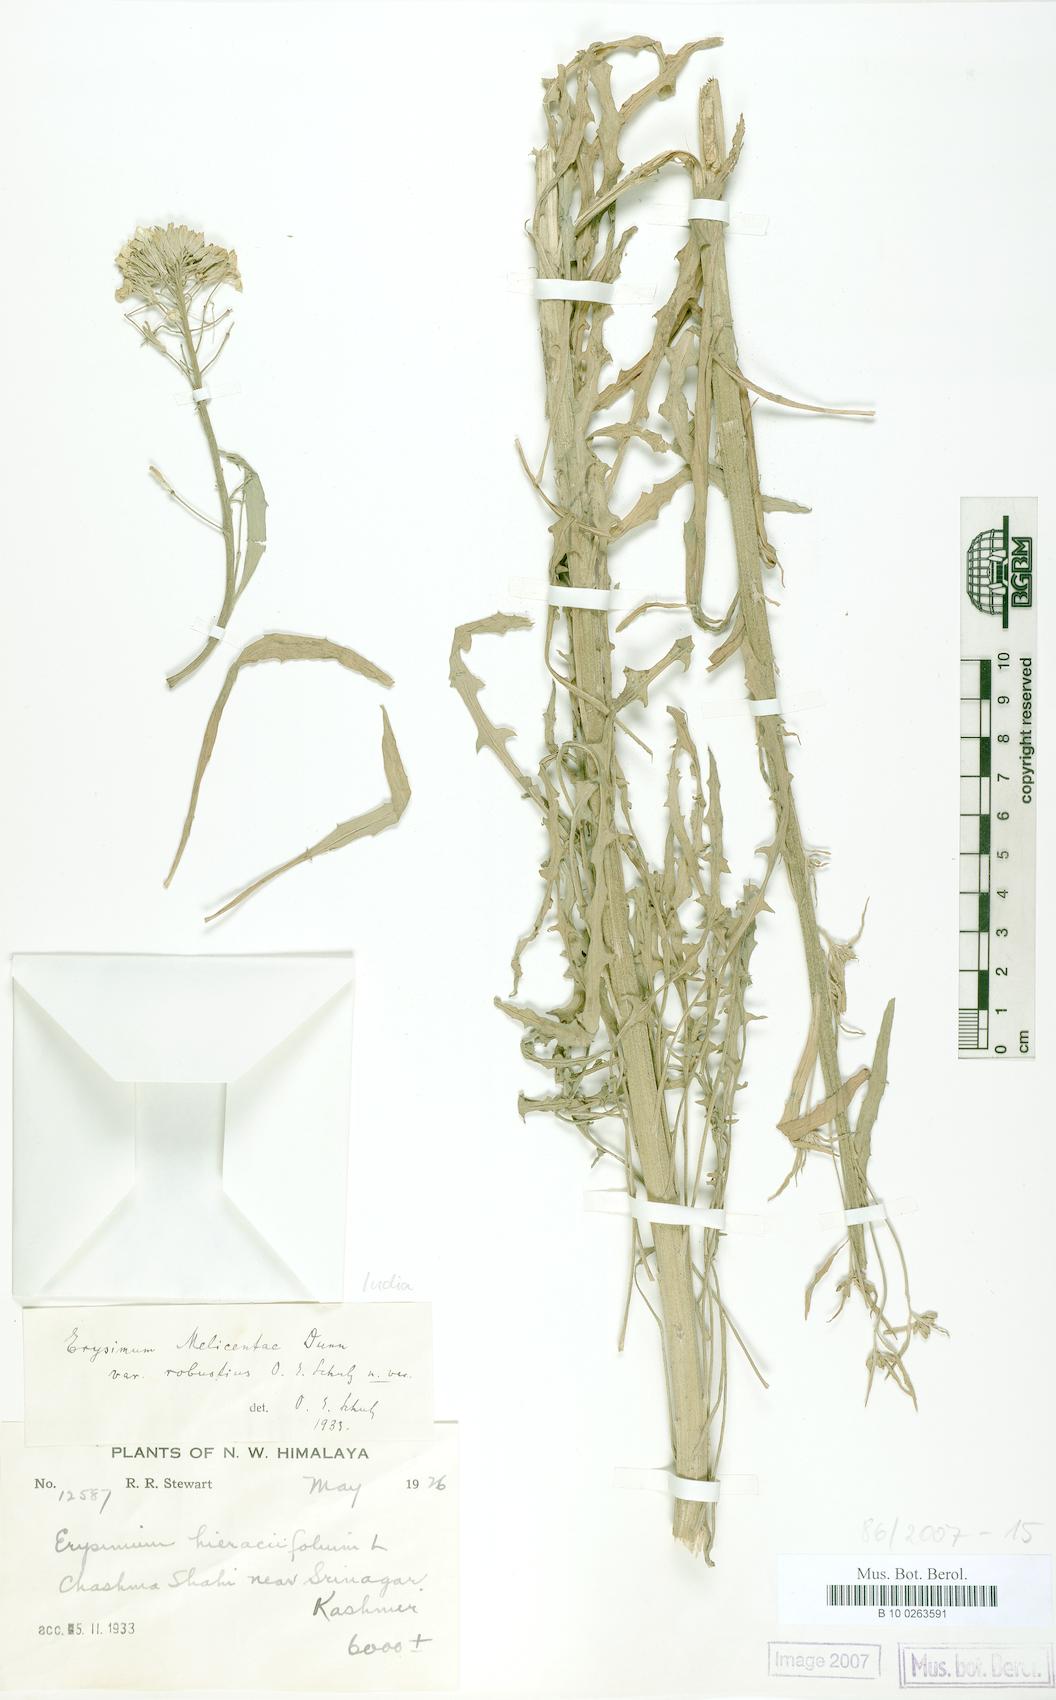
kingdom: Plantae
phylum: Tracheophyta
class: Magnoliopsida
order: Brassicales
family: Brassicaceae
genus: Erysimum
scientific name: Erysimum melicentae
